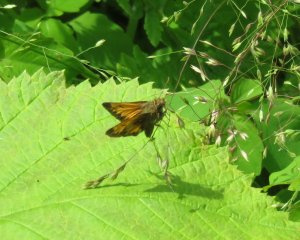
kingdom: Animalia
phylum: Arthropoda
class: Insecta
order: Lepidoptera
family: Hesperiidae
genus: Lon
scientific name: Lon hobomok
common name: Hobomok Skipper
